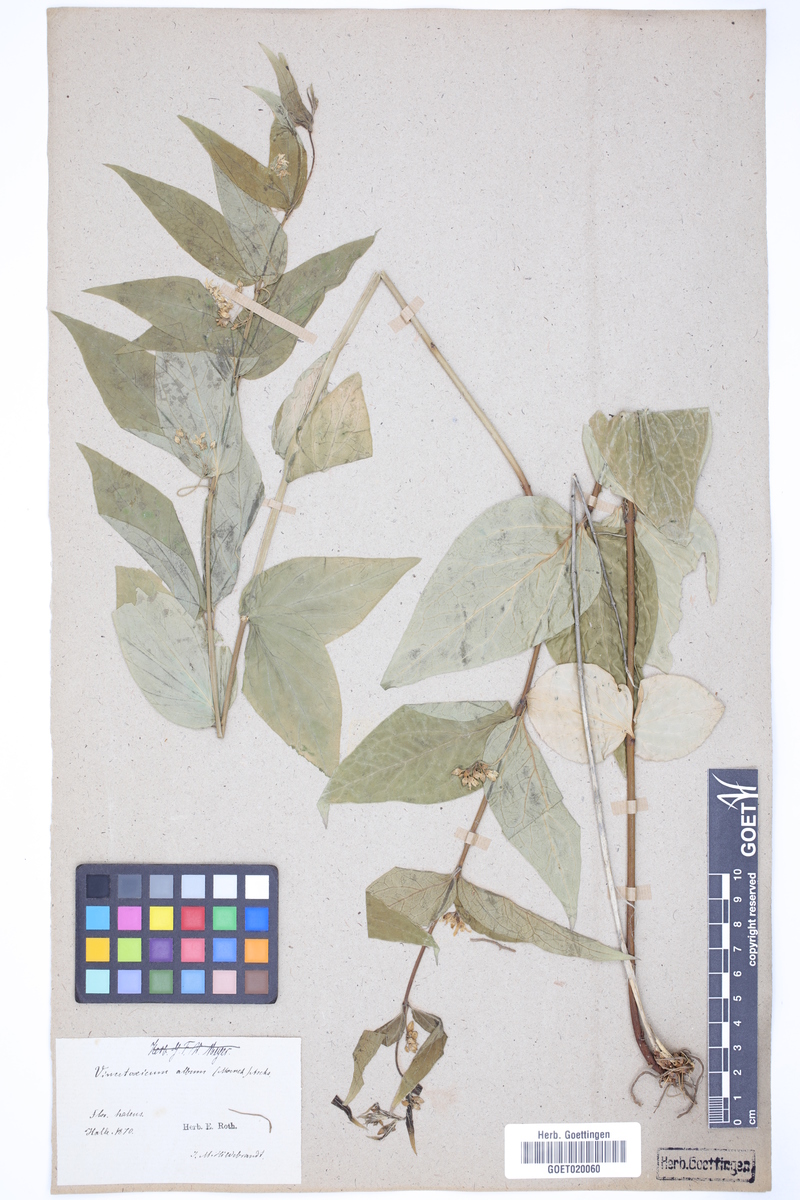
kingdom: Plantae
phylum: Tracheophyta
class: Magnoliopsida
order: Gentianales
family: Apocynaceae
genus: Vincetoxicum
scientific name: Vincetoxicum hirundinaria
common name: White swallowwort
